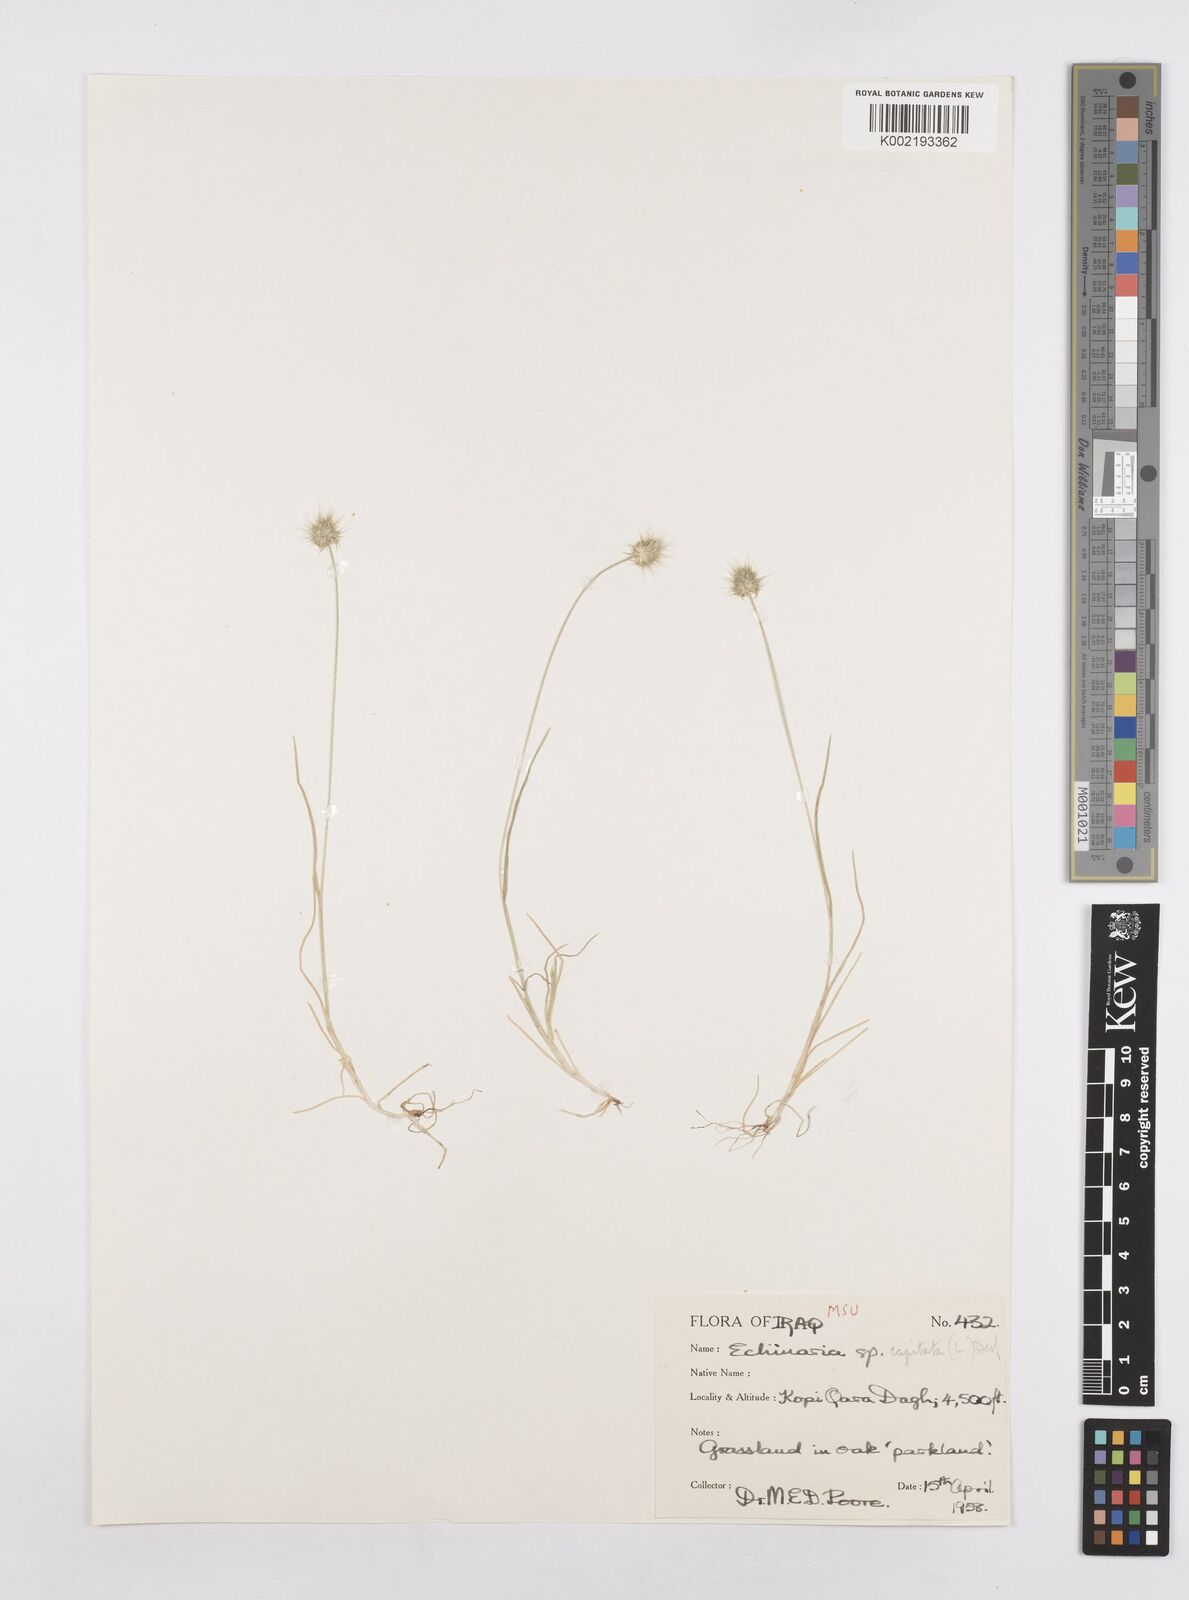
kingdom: Plantae
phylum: Tracheophyta
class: Liliopsida
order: Poales
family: Poaceae
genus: Echinaria
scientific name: Echinaria capitata
